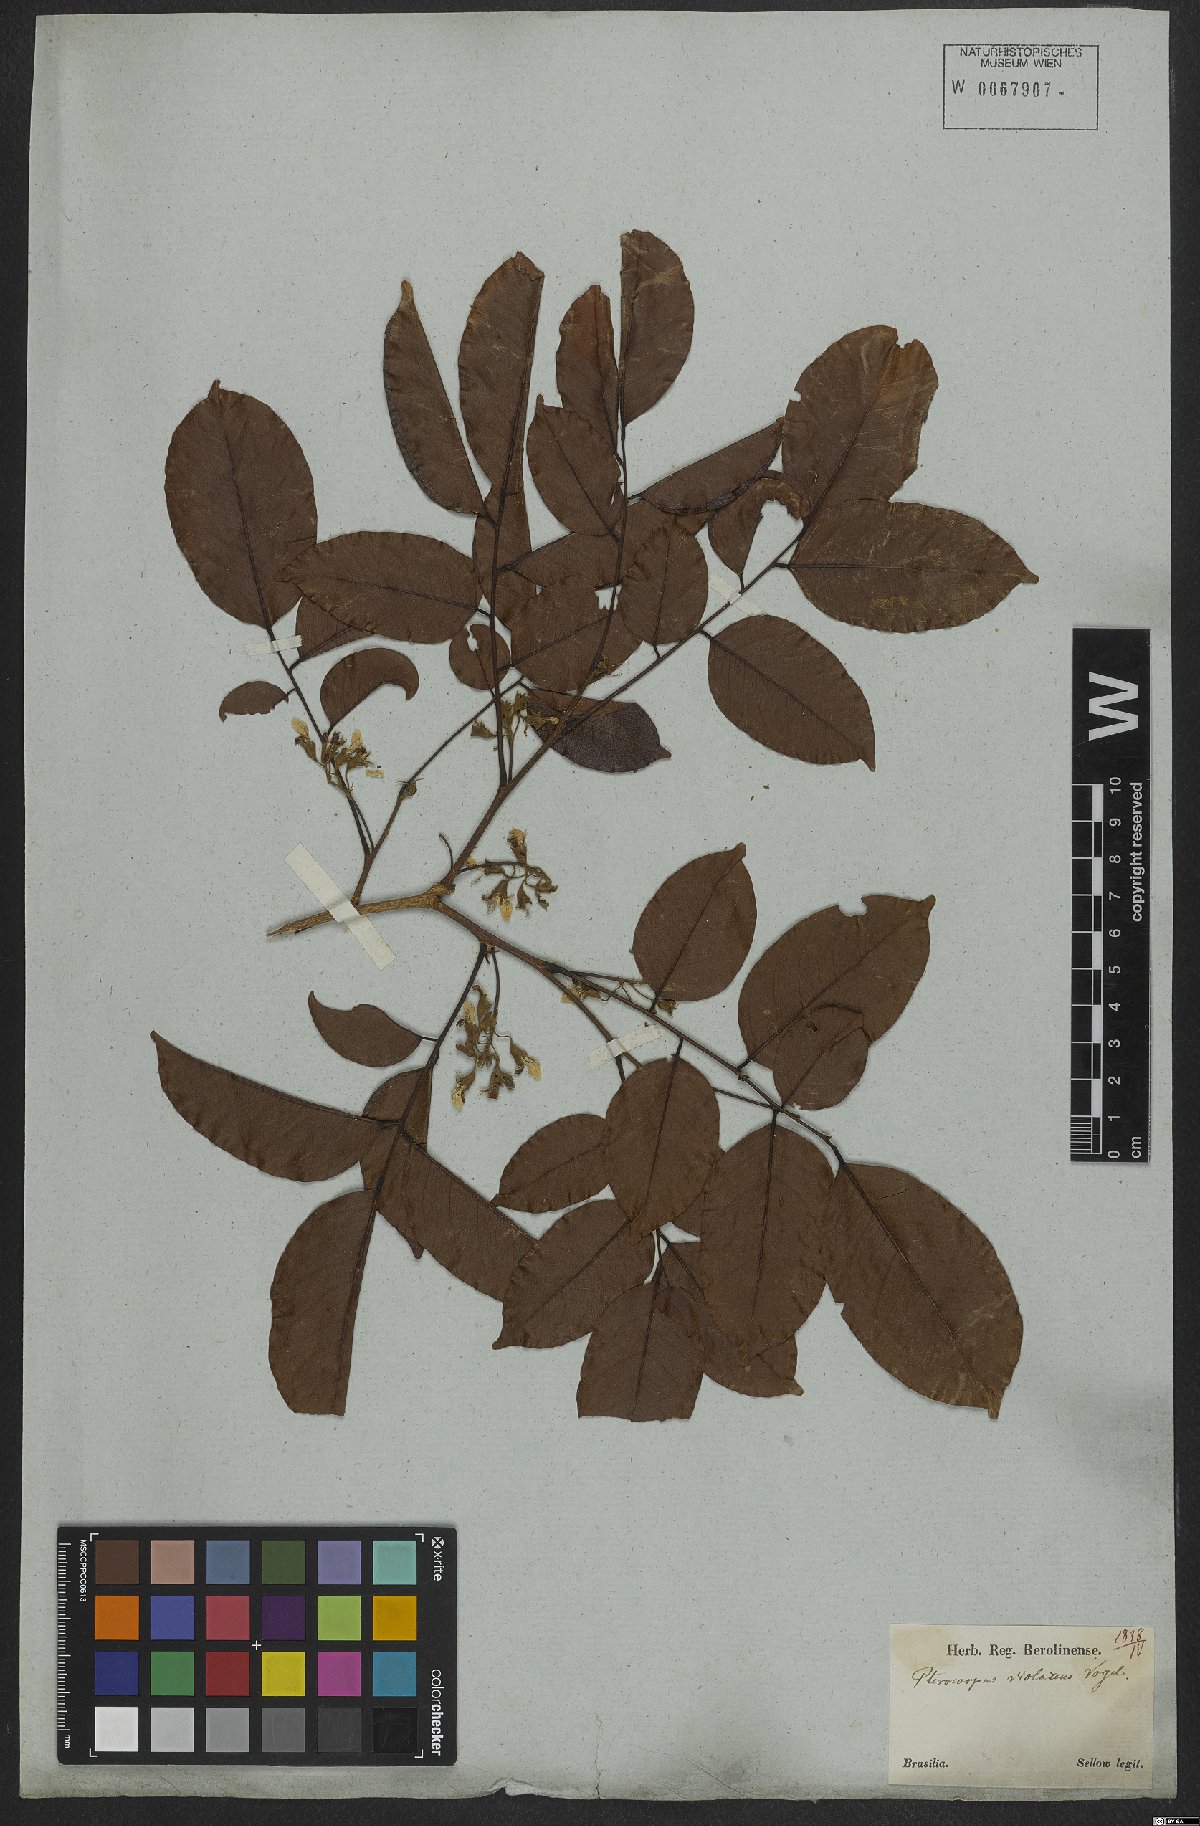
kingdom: Plantae
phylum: Tracheophyta
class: Magnoliopsida
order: Fabales
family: Fabaceae
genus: Pterocarpus
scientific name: Pterocarpus rohrii
